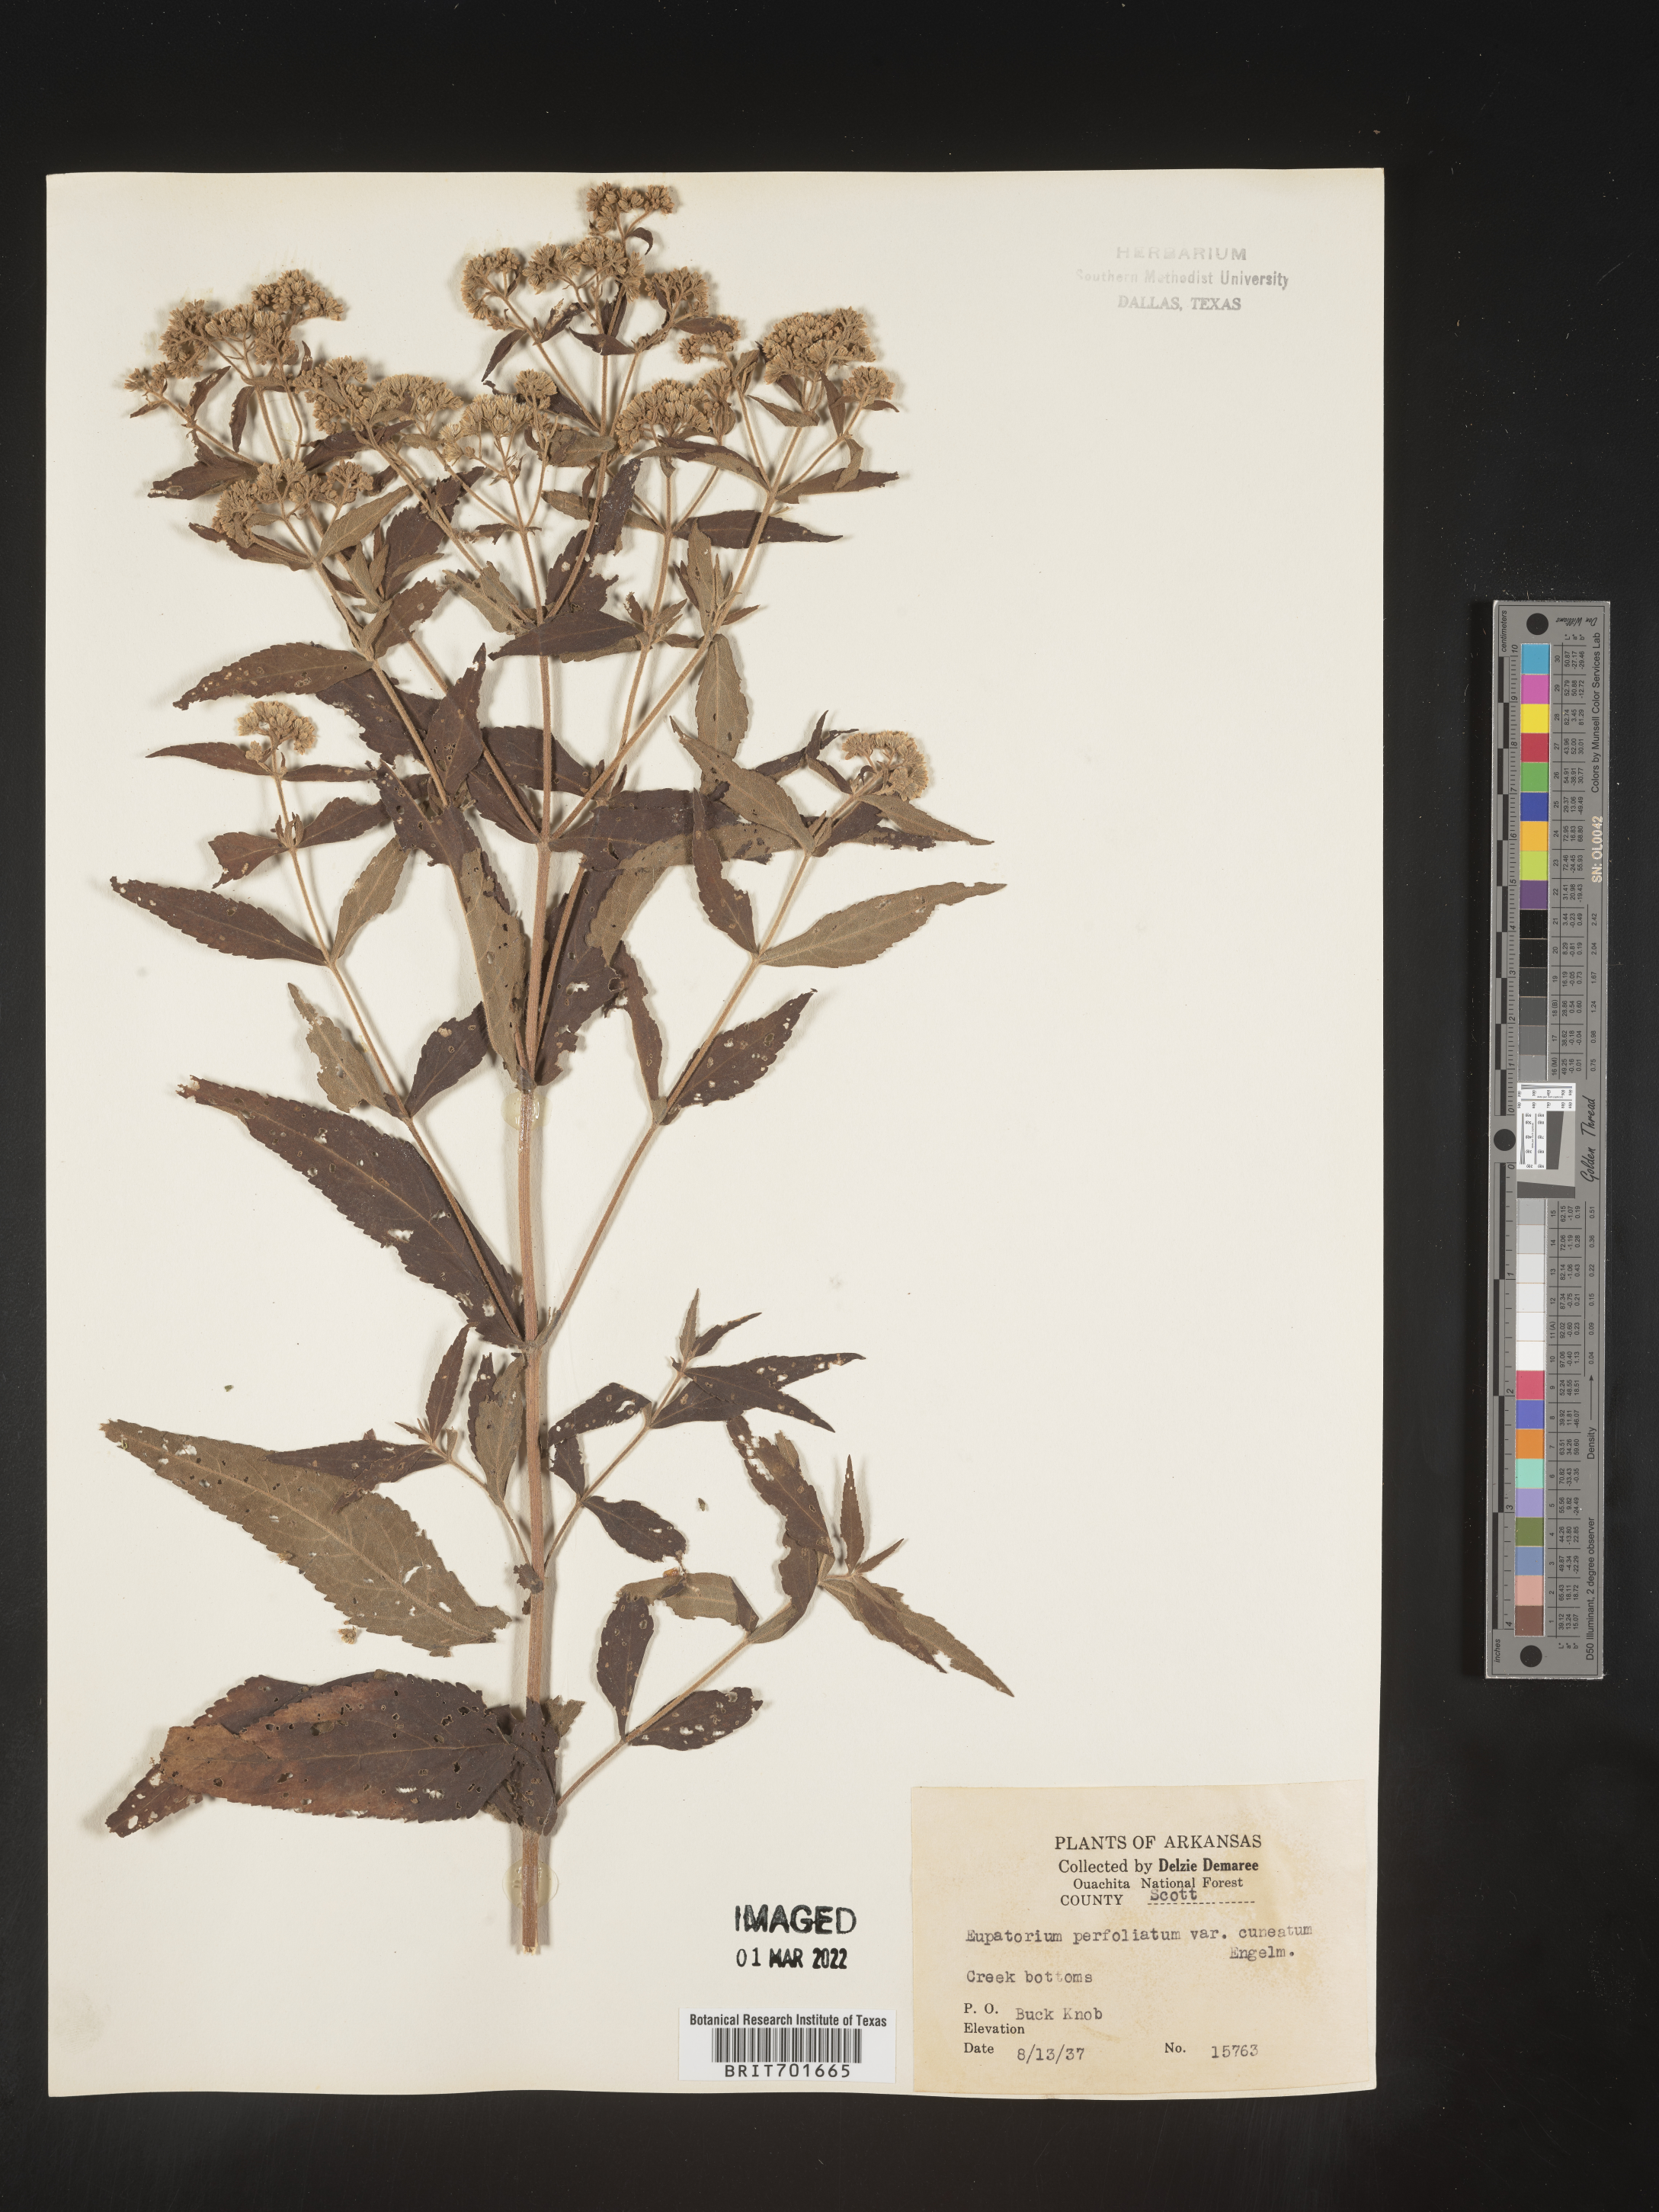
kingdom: Plantae
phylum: Tracheophyta
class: Magnoliopsida
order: Asterales
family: Asteraceae
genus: Eupatorium
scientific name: Eupatorium perfoliatum
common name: Boneset
